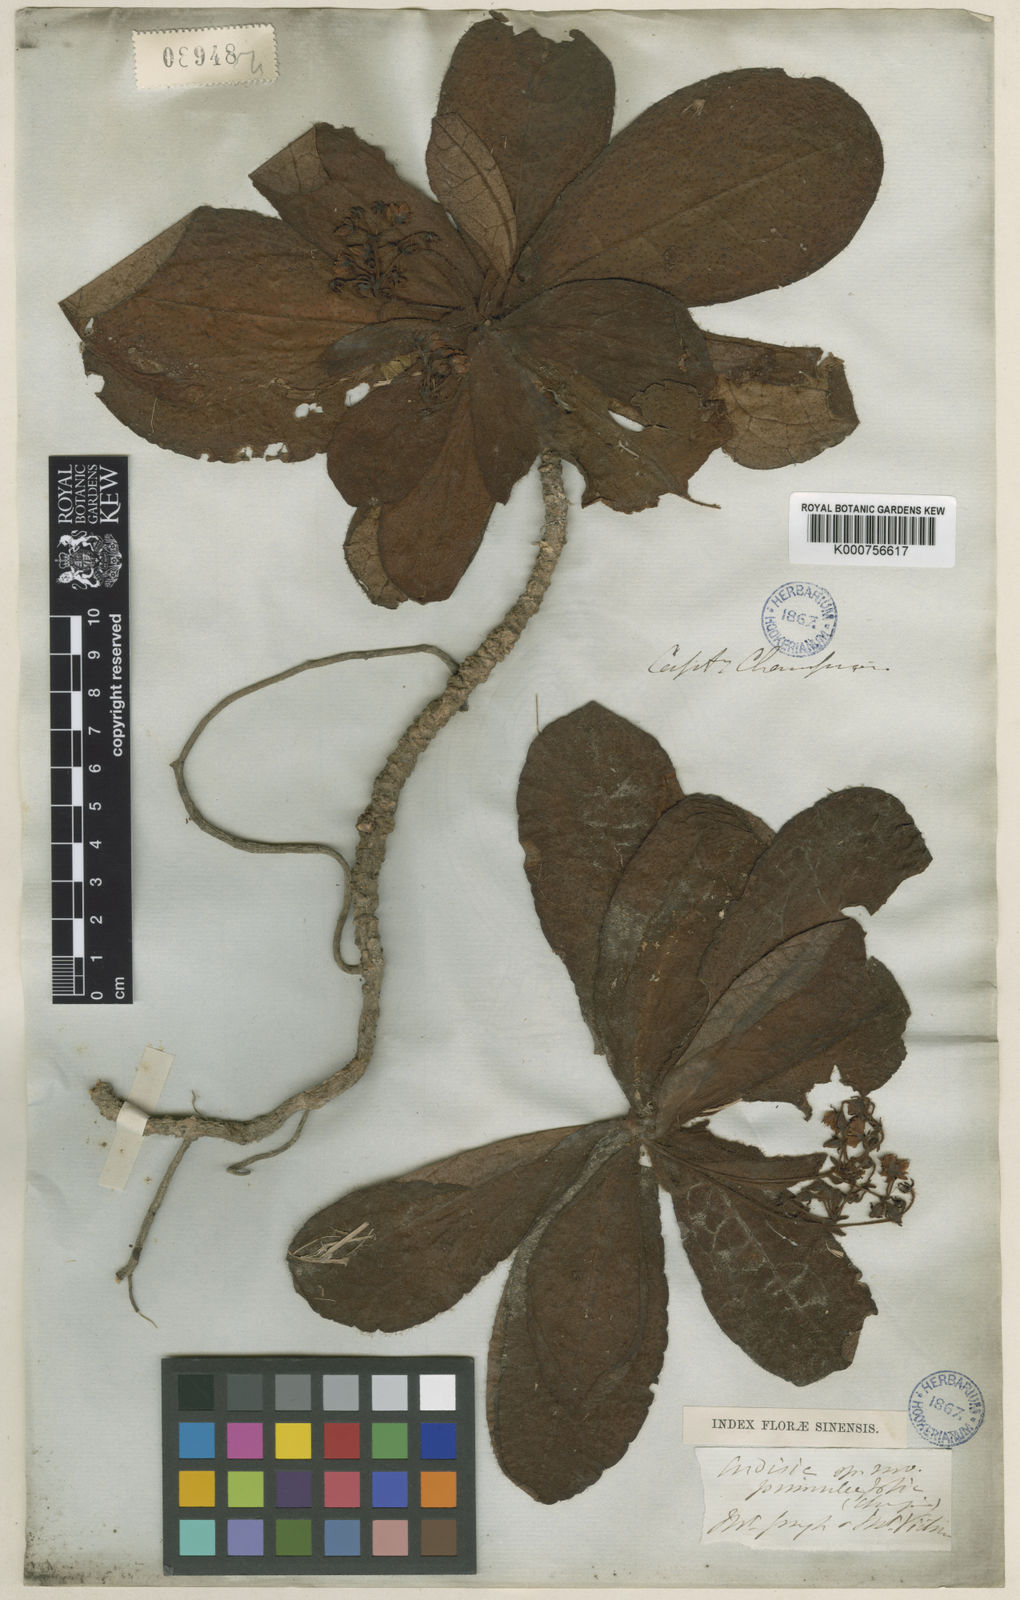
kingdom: Plantae
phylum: Tracheophyta
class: Magnoliopsida
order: Ericales
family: Primulaceae
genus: Ardisia
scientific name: Ardisia primulifolia
